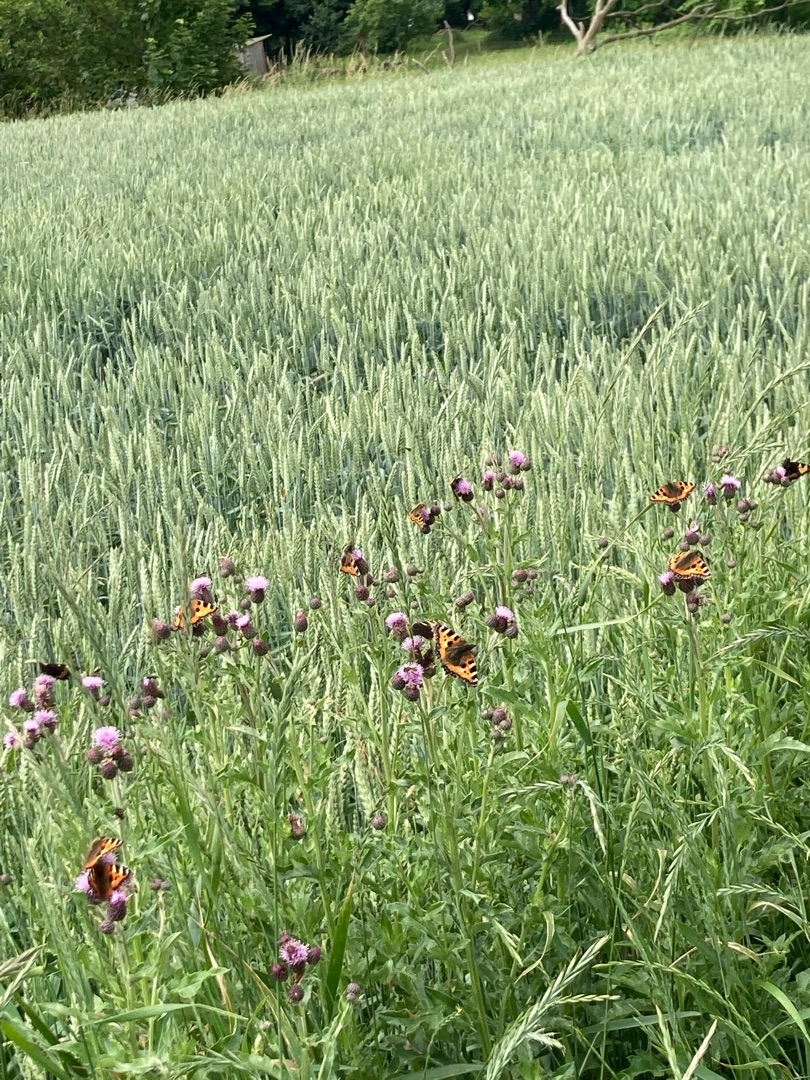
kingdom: Animalia
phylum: Arthropoda
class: Insecta
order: Lepidoptera
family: Nymphalidae
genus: Aglais
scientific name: Aglais urticae
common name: Nældens takvinge
